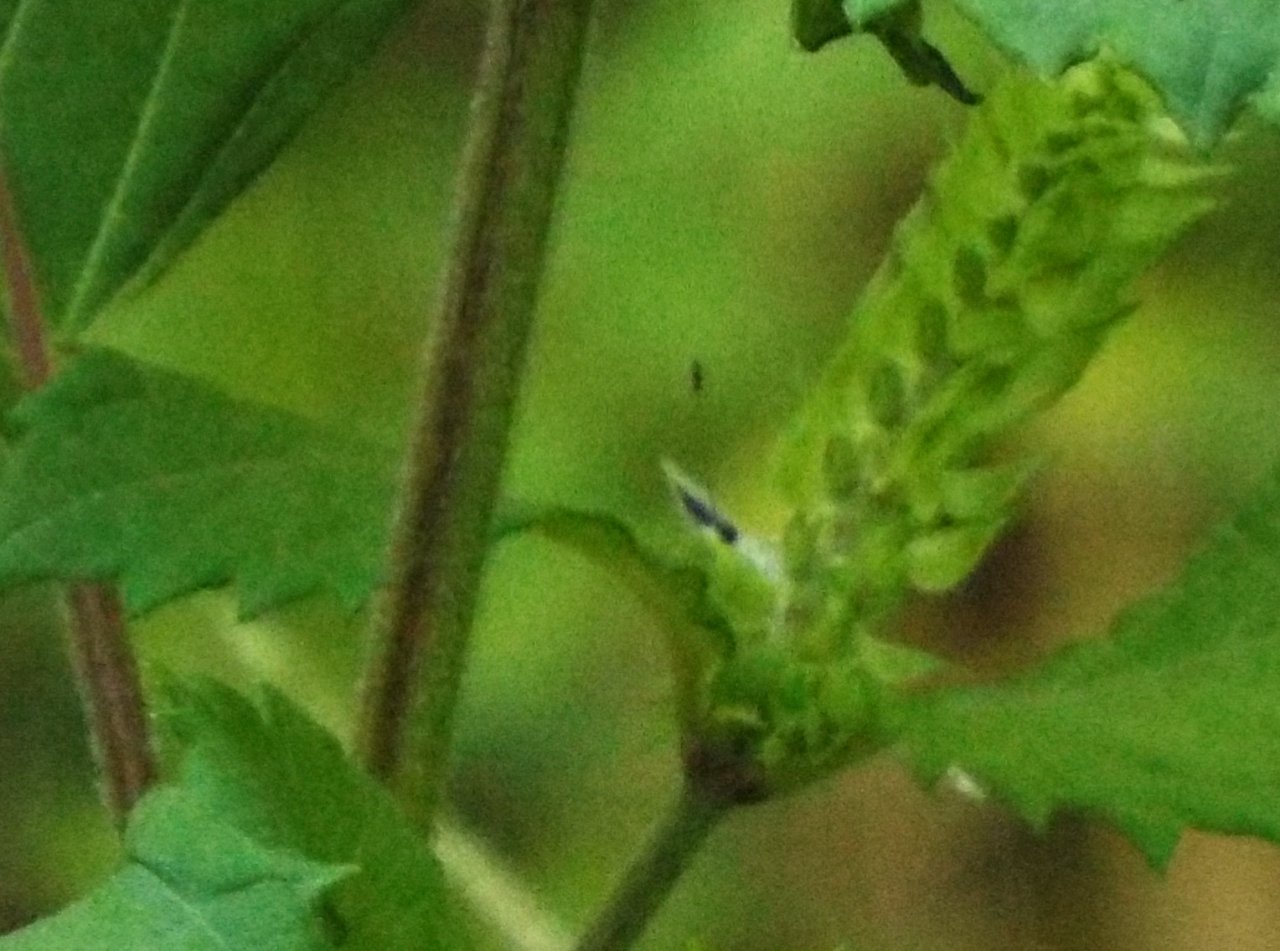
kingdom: Animalia
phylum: Arthropoda
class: Insecta
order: Lepidoptera
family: Lycaenidae
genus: Cyaniris
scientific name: Cyaniris neglecta
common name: Summer Azure
